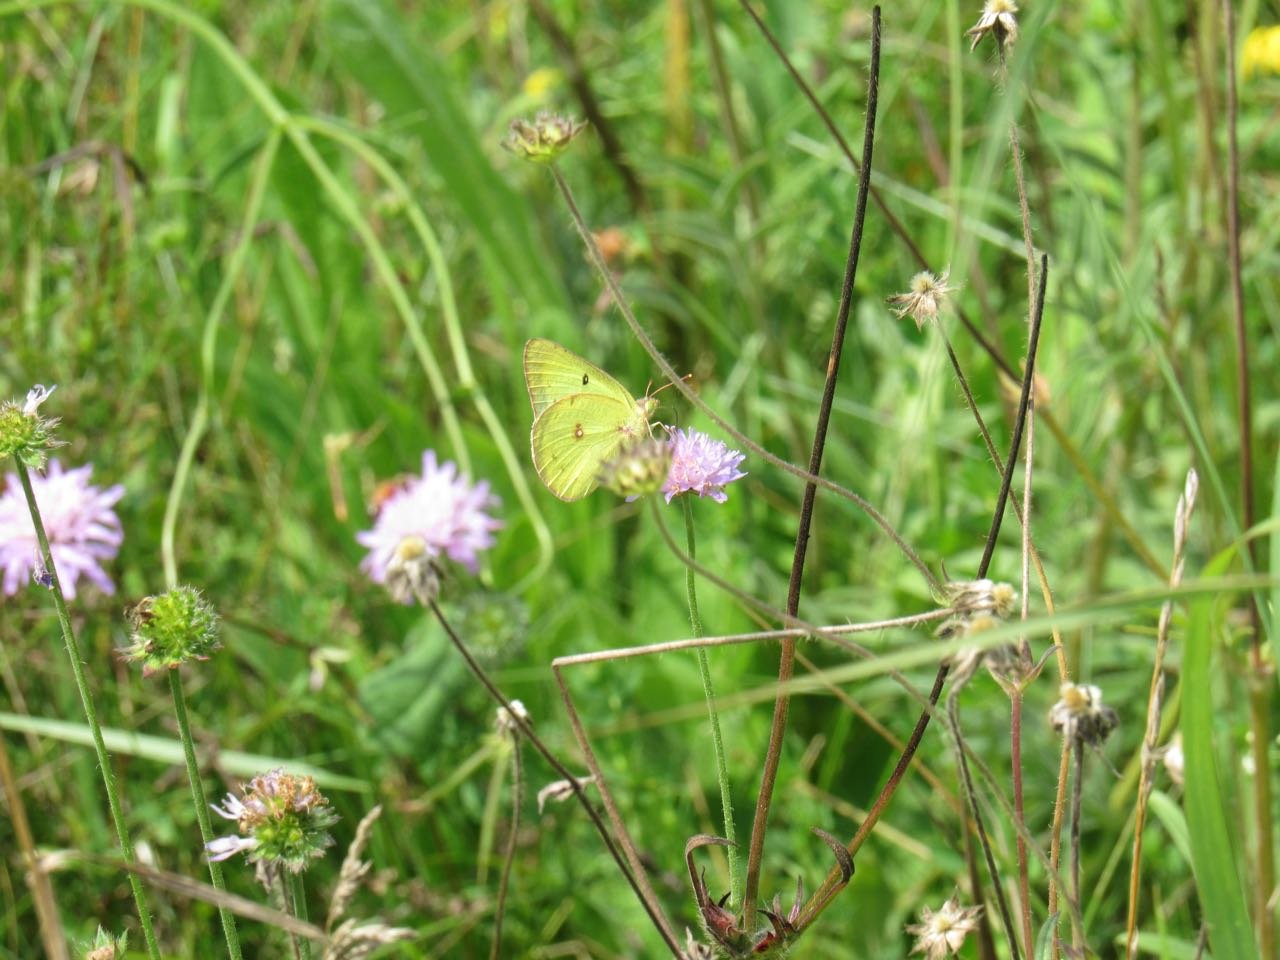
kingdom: Animalia
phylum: Arthropoda
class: Insecta
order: Lepidoptera
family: Pieridae
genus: Colias
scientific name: Colias philodice
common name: Clouded Sulphur
